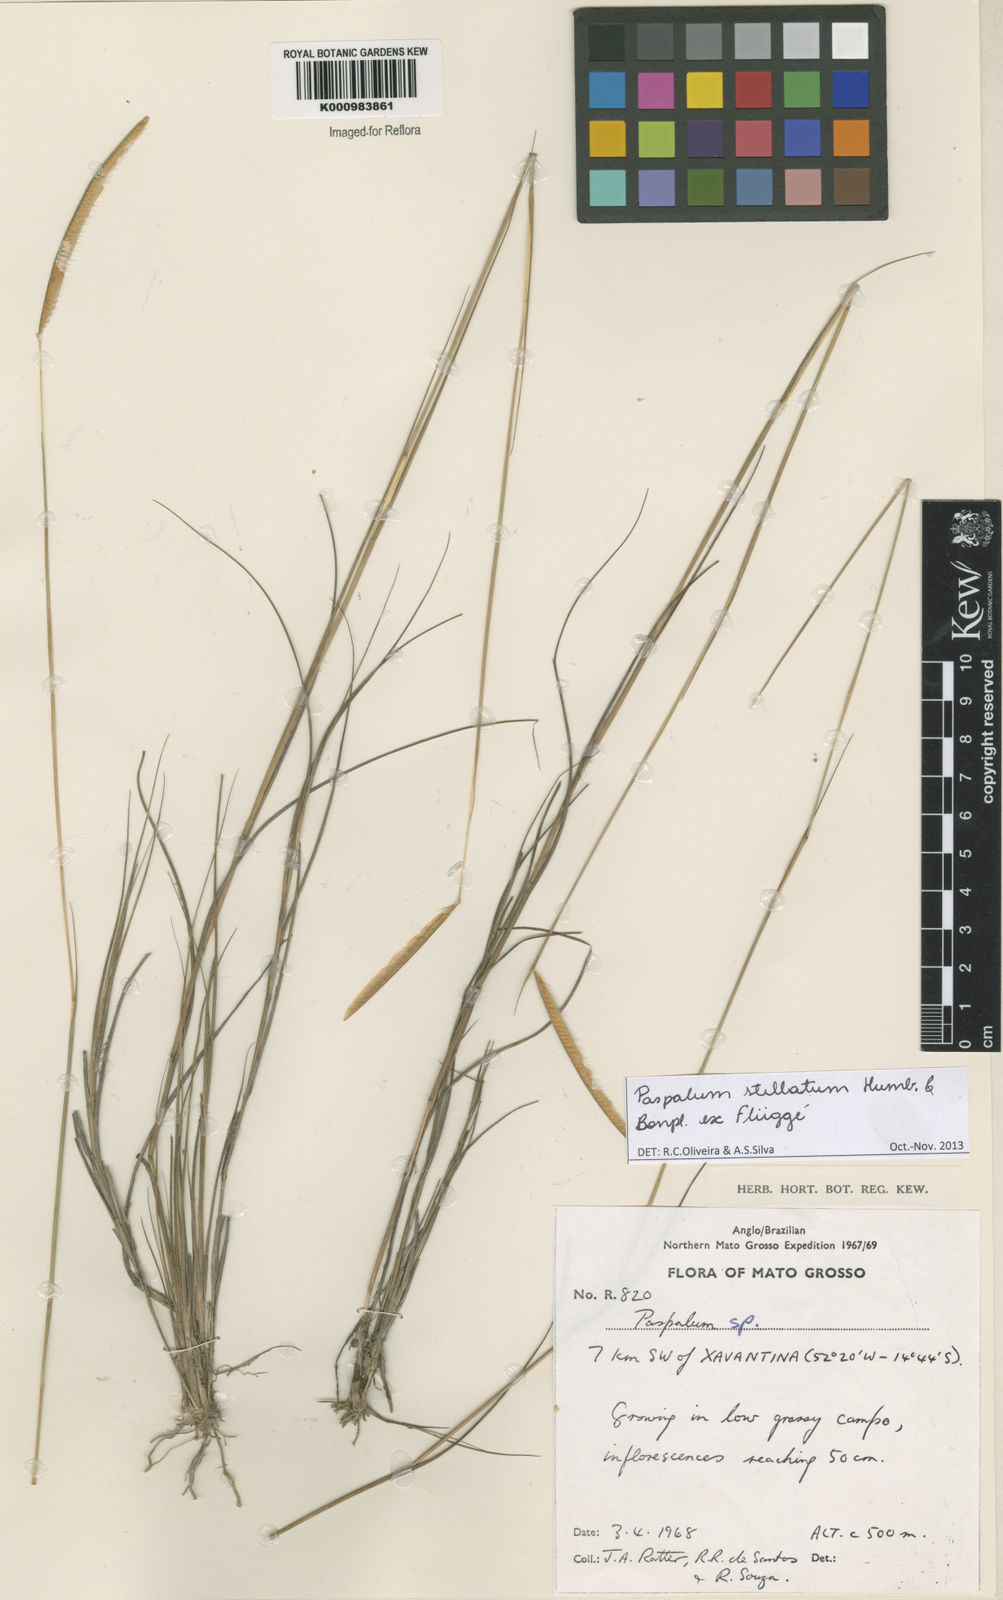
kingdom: Plantae
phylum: Tracheophyta
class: Liliopsida
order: Poales
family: Poaceae
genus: Paspalum
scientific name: Paspalum
